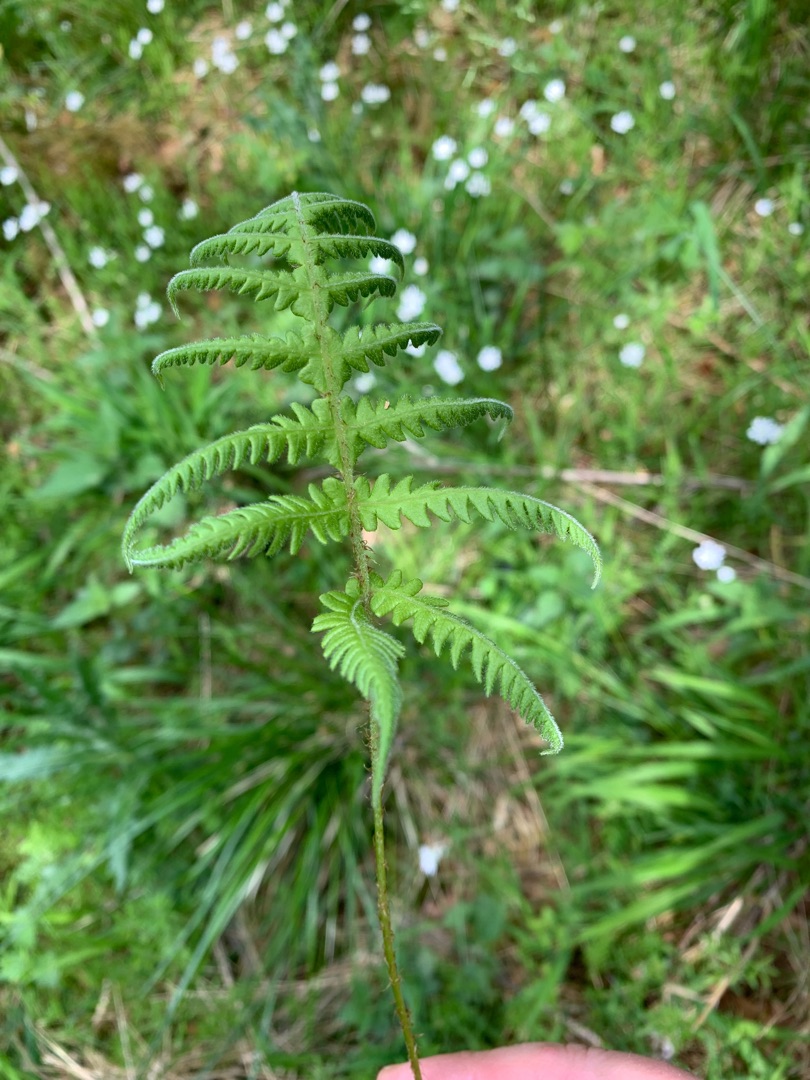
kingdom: Plantae
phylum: Tracheophyta
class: Polypodiopsida
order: Polypodiales
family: Thelypteridaceae
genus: Phegopteris
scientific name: Phegopteris connectilis
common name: Dunet egebregne
